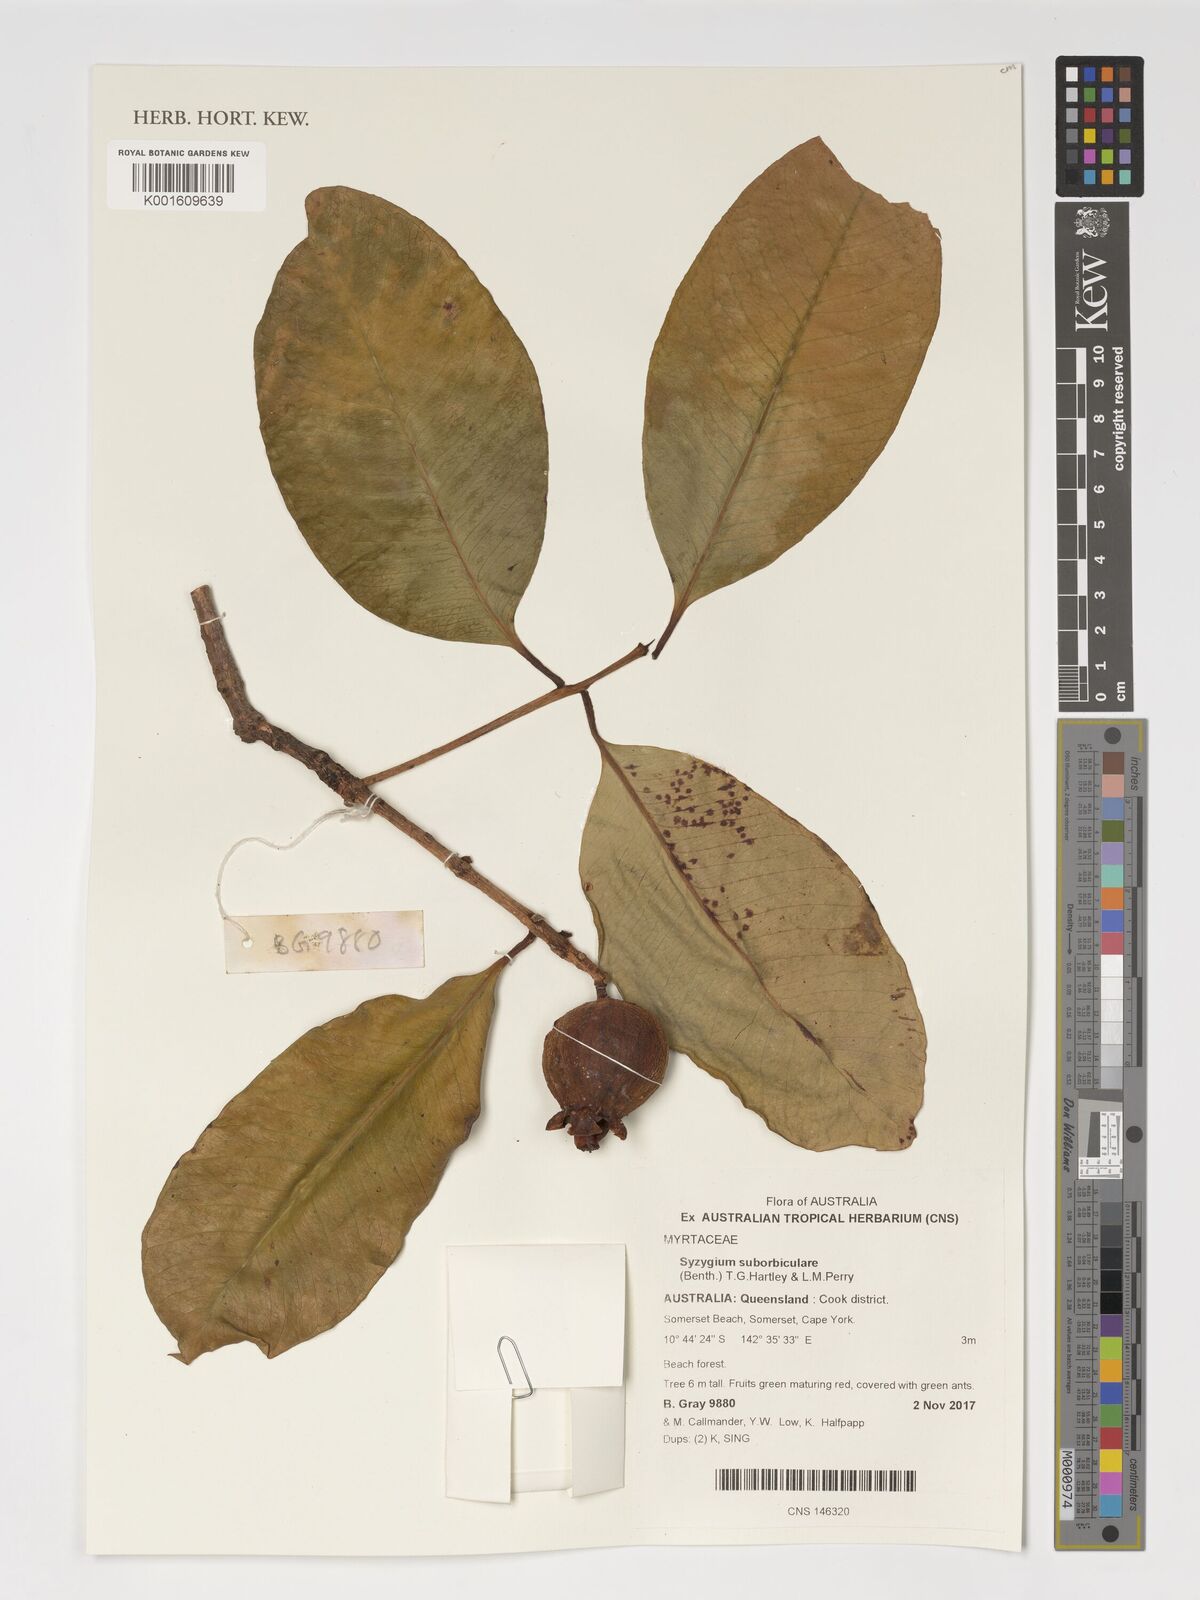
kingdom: Plantae
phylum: Tracheophyta
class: Magnoliopsida
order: Myrtales
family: Myrtaceae
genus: Syzygium
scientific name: Syzygium suborbiculare
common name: Red bush apple
